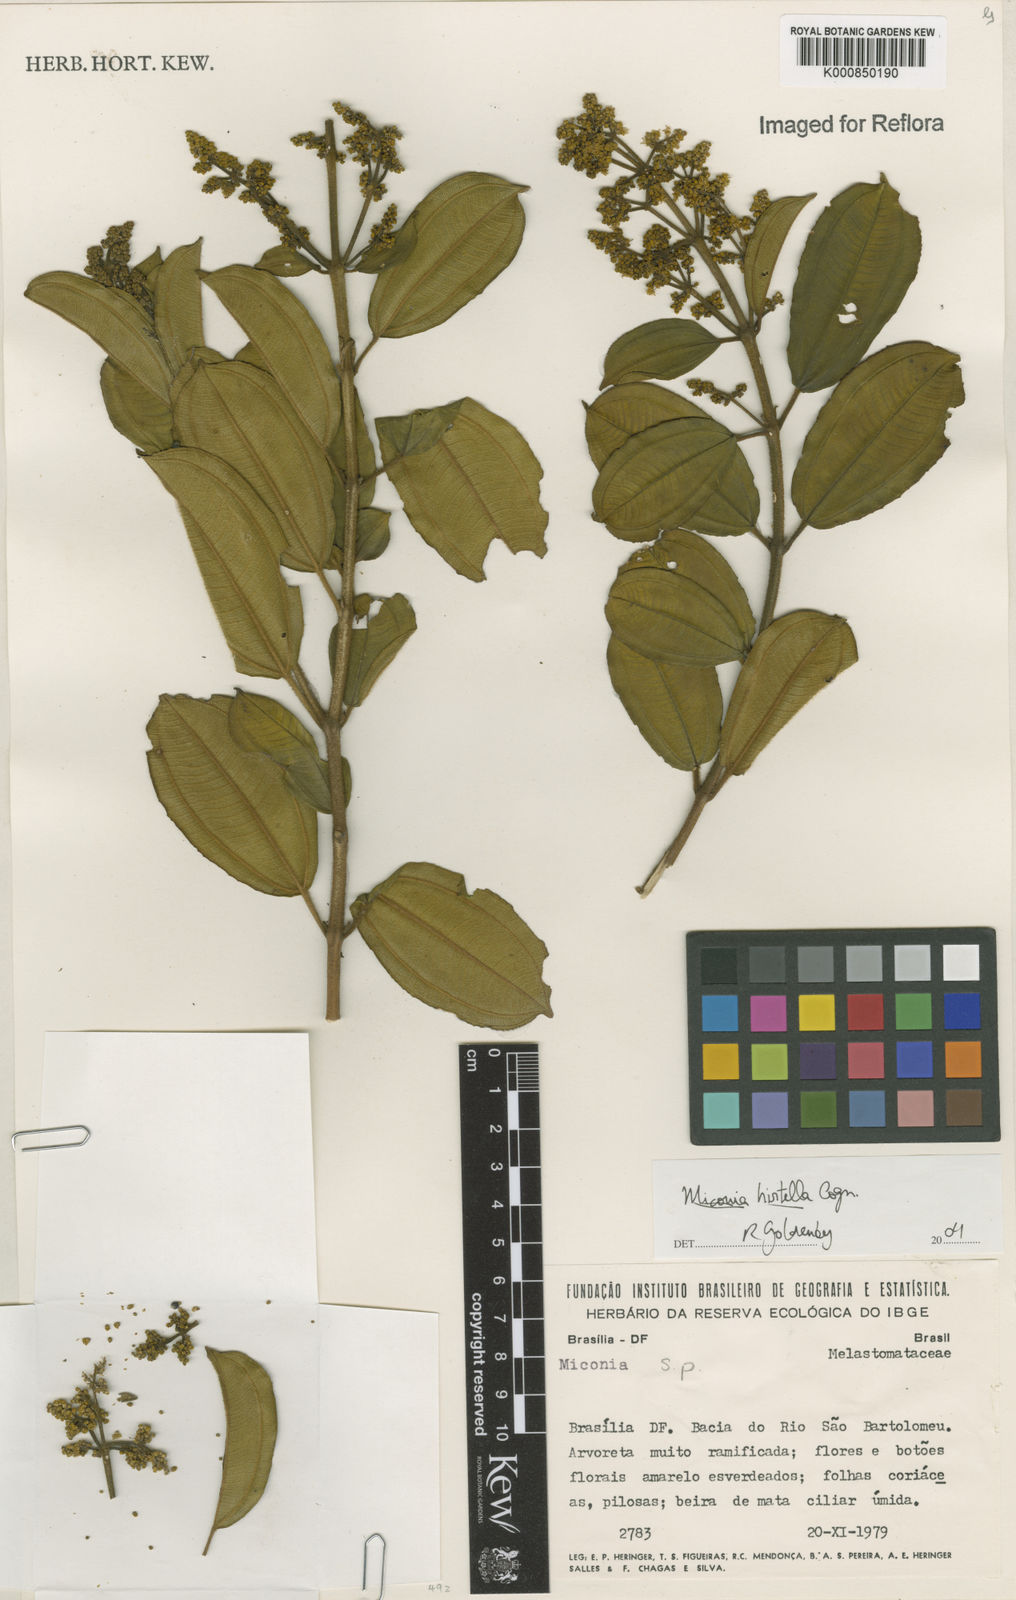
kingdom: Plantae
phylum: Tracheophyta
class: Magnoliopsida
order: Myrtales
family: Melastomataceae
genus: Miconia
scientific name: Miconia hirta
